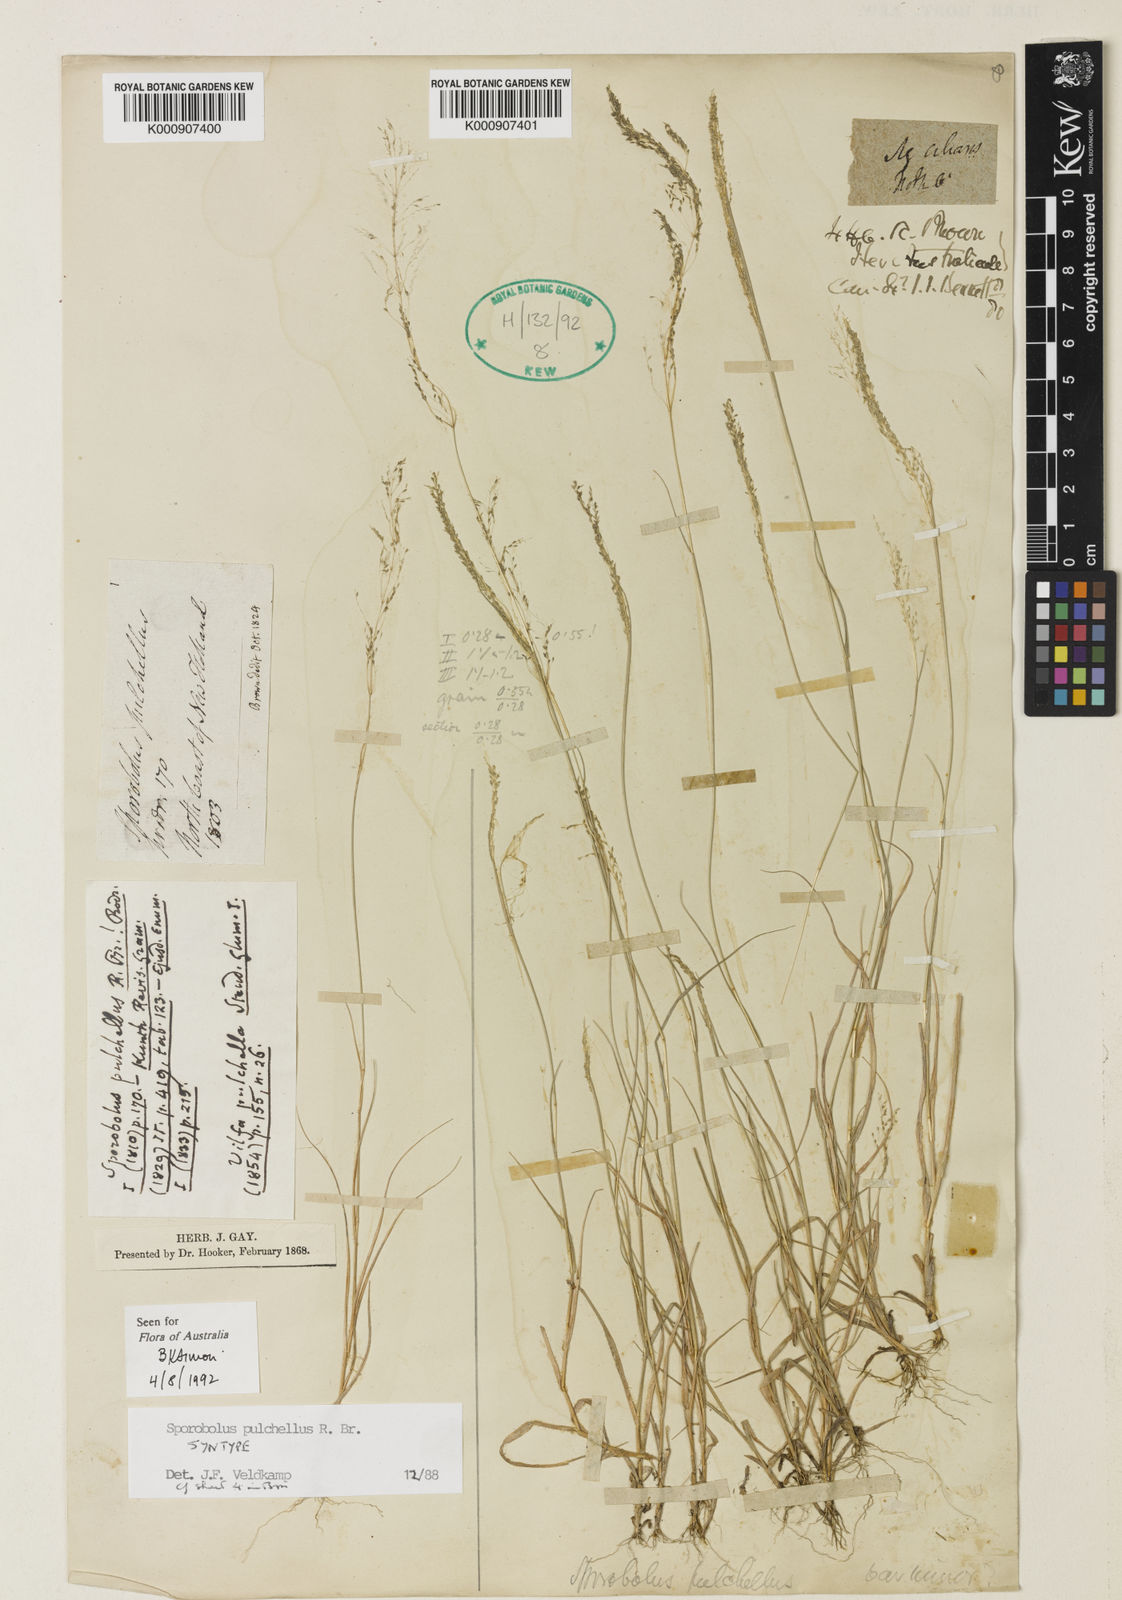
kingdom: Plantae
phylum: Tracheophyta
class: Liliopsida
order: Poales
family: Poaceae
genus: Sporobolus
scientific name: Sporobolus pulchellus
